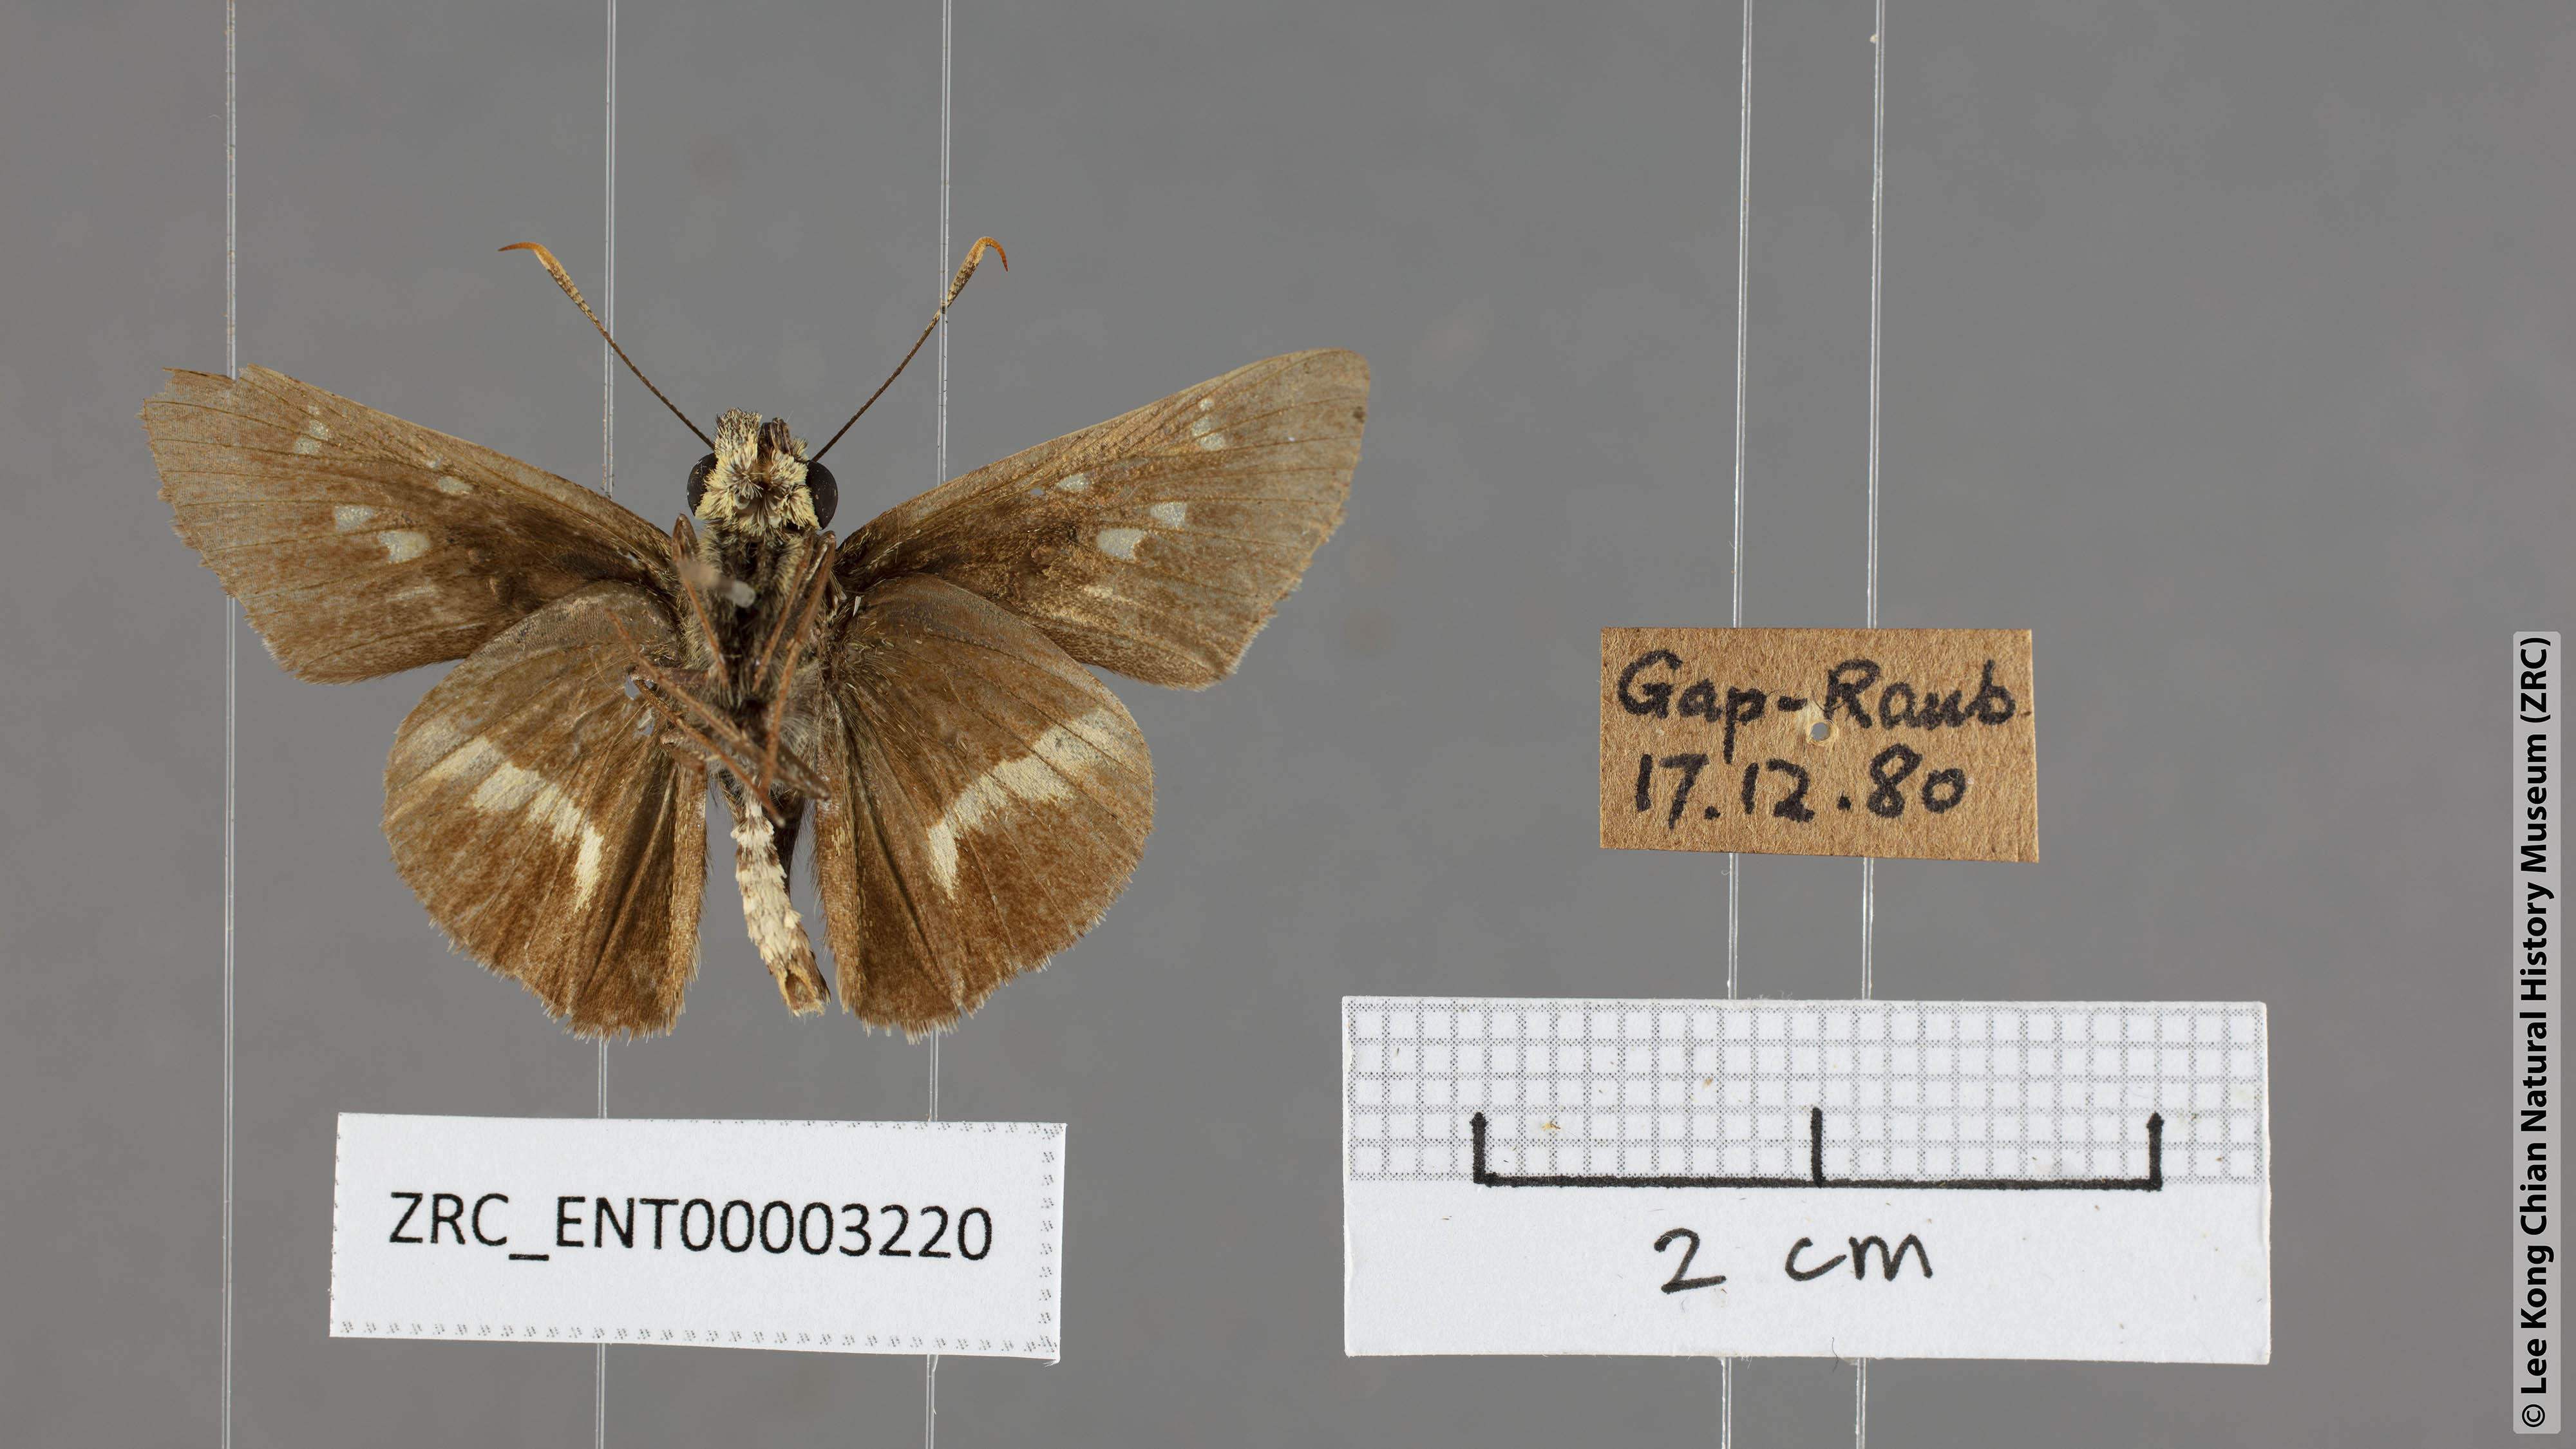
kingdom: Animalia
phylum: Arthropoda
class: Insecta
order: Lepidoptera
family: Hesperiidae
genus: Halpe
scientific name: Halpe elana
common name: Narrow-banded ace
